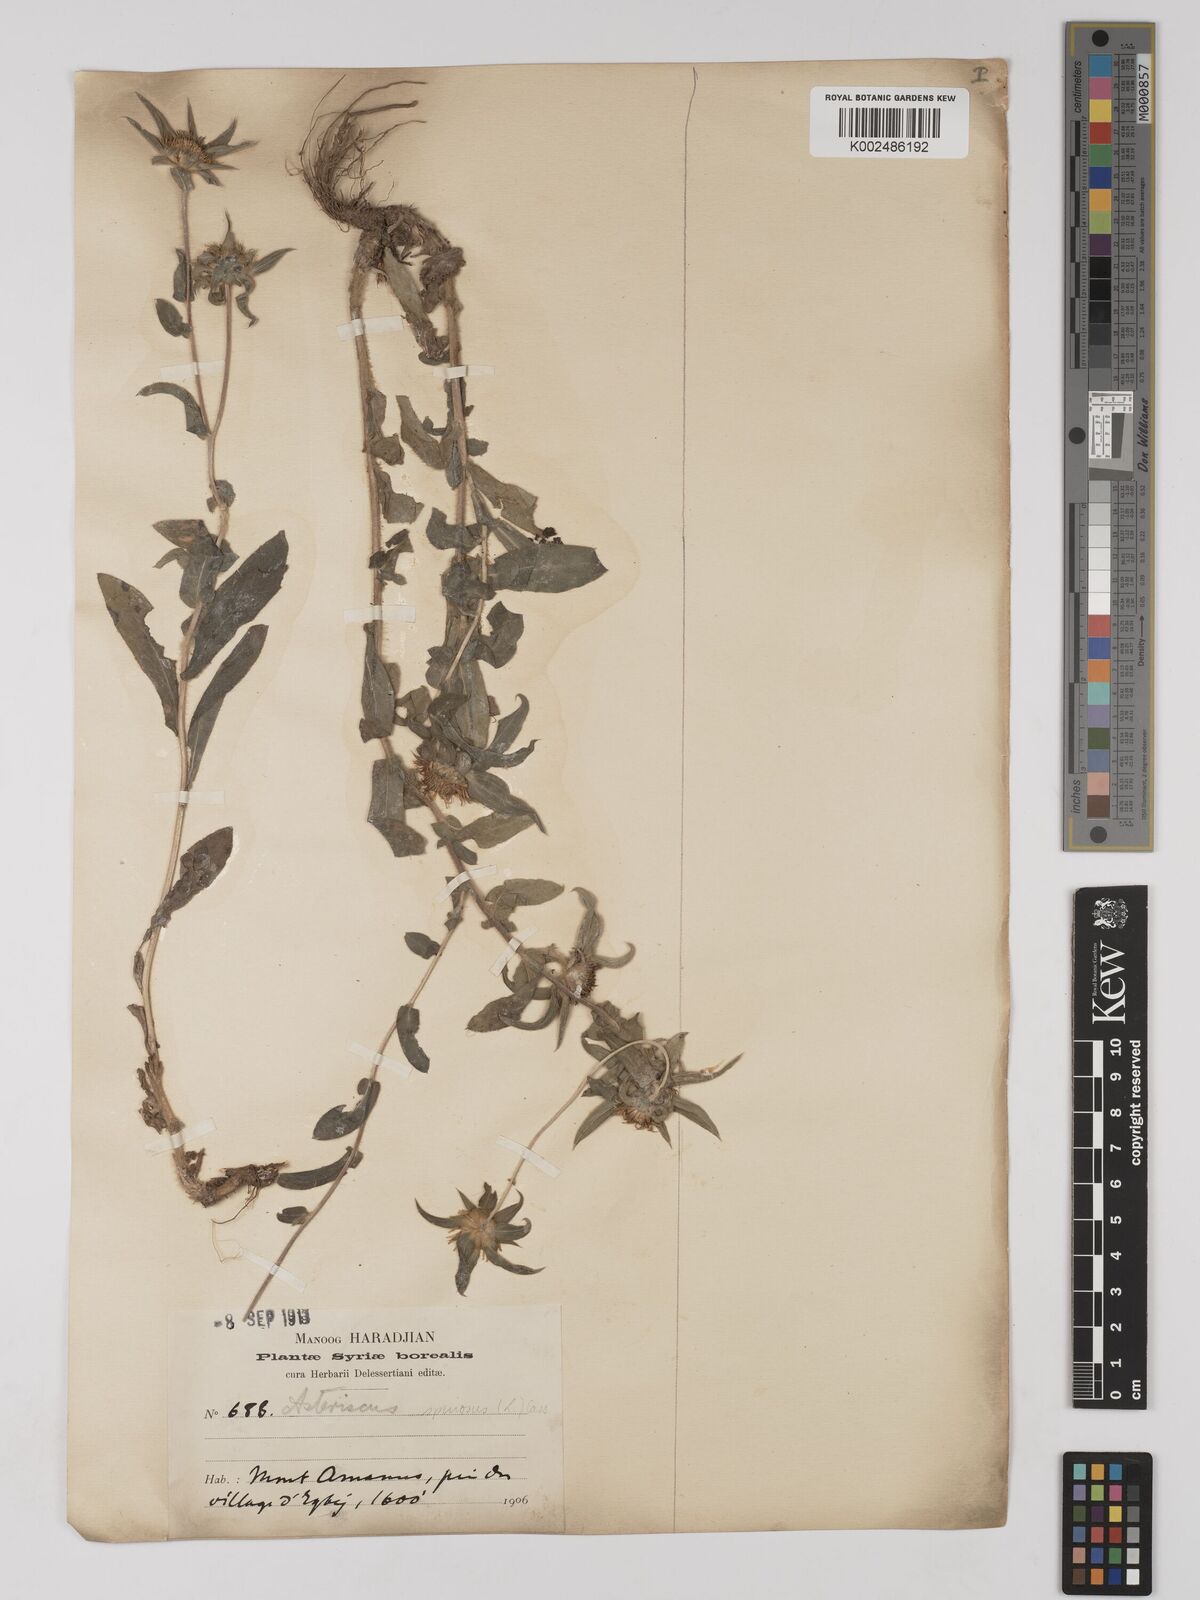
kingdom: Plantae
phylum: Tracheophyta
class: Magnoliopsida
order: Asterales
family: Asteraceae
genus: Pallenis
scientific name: Pallenis spinosa
